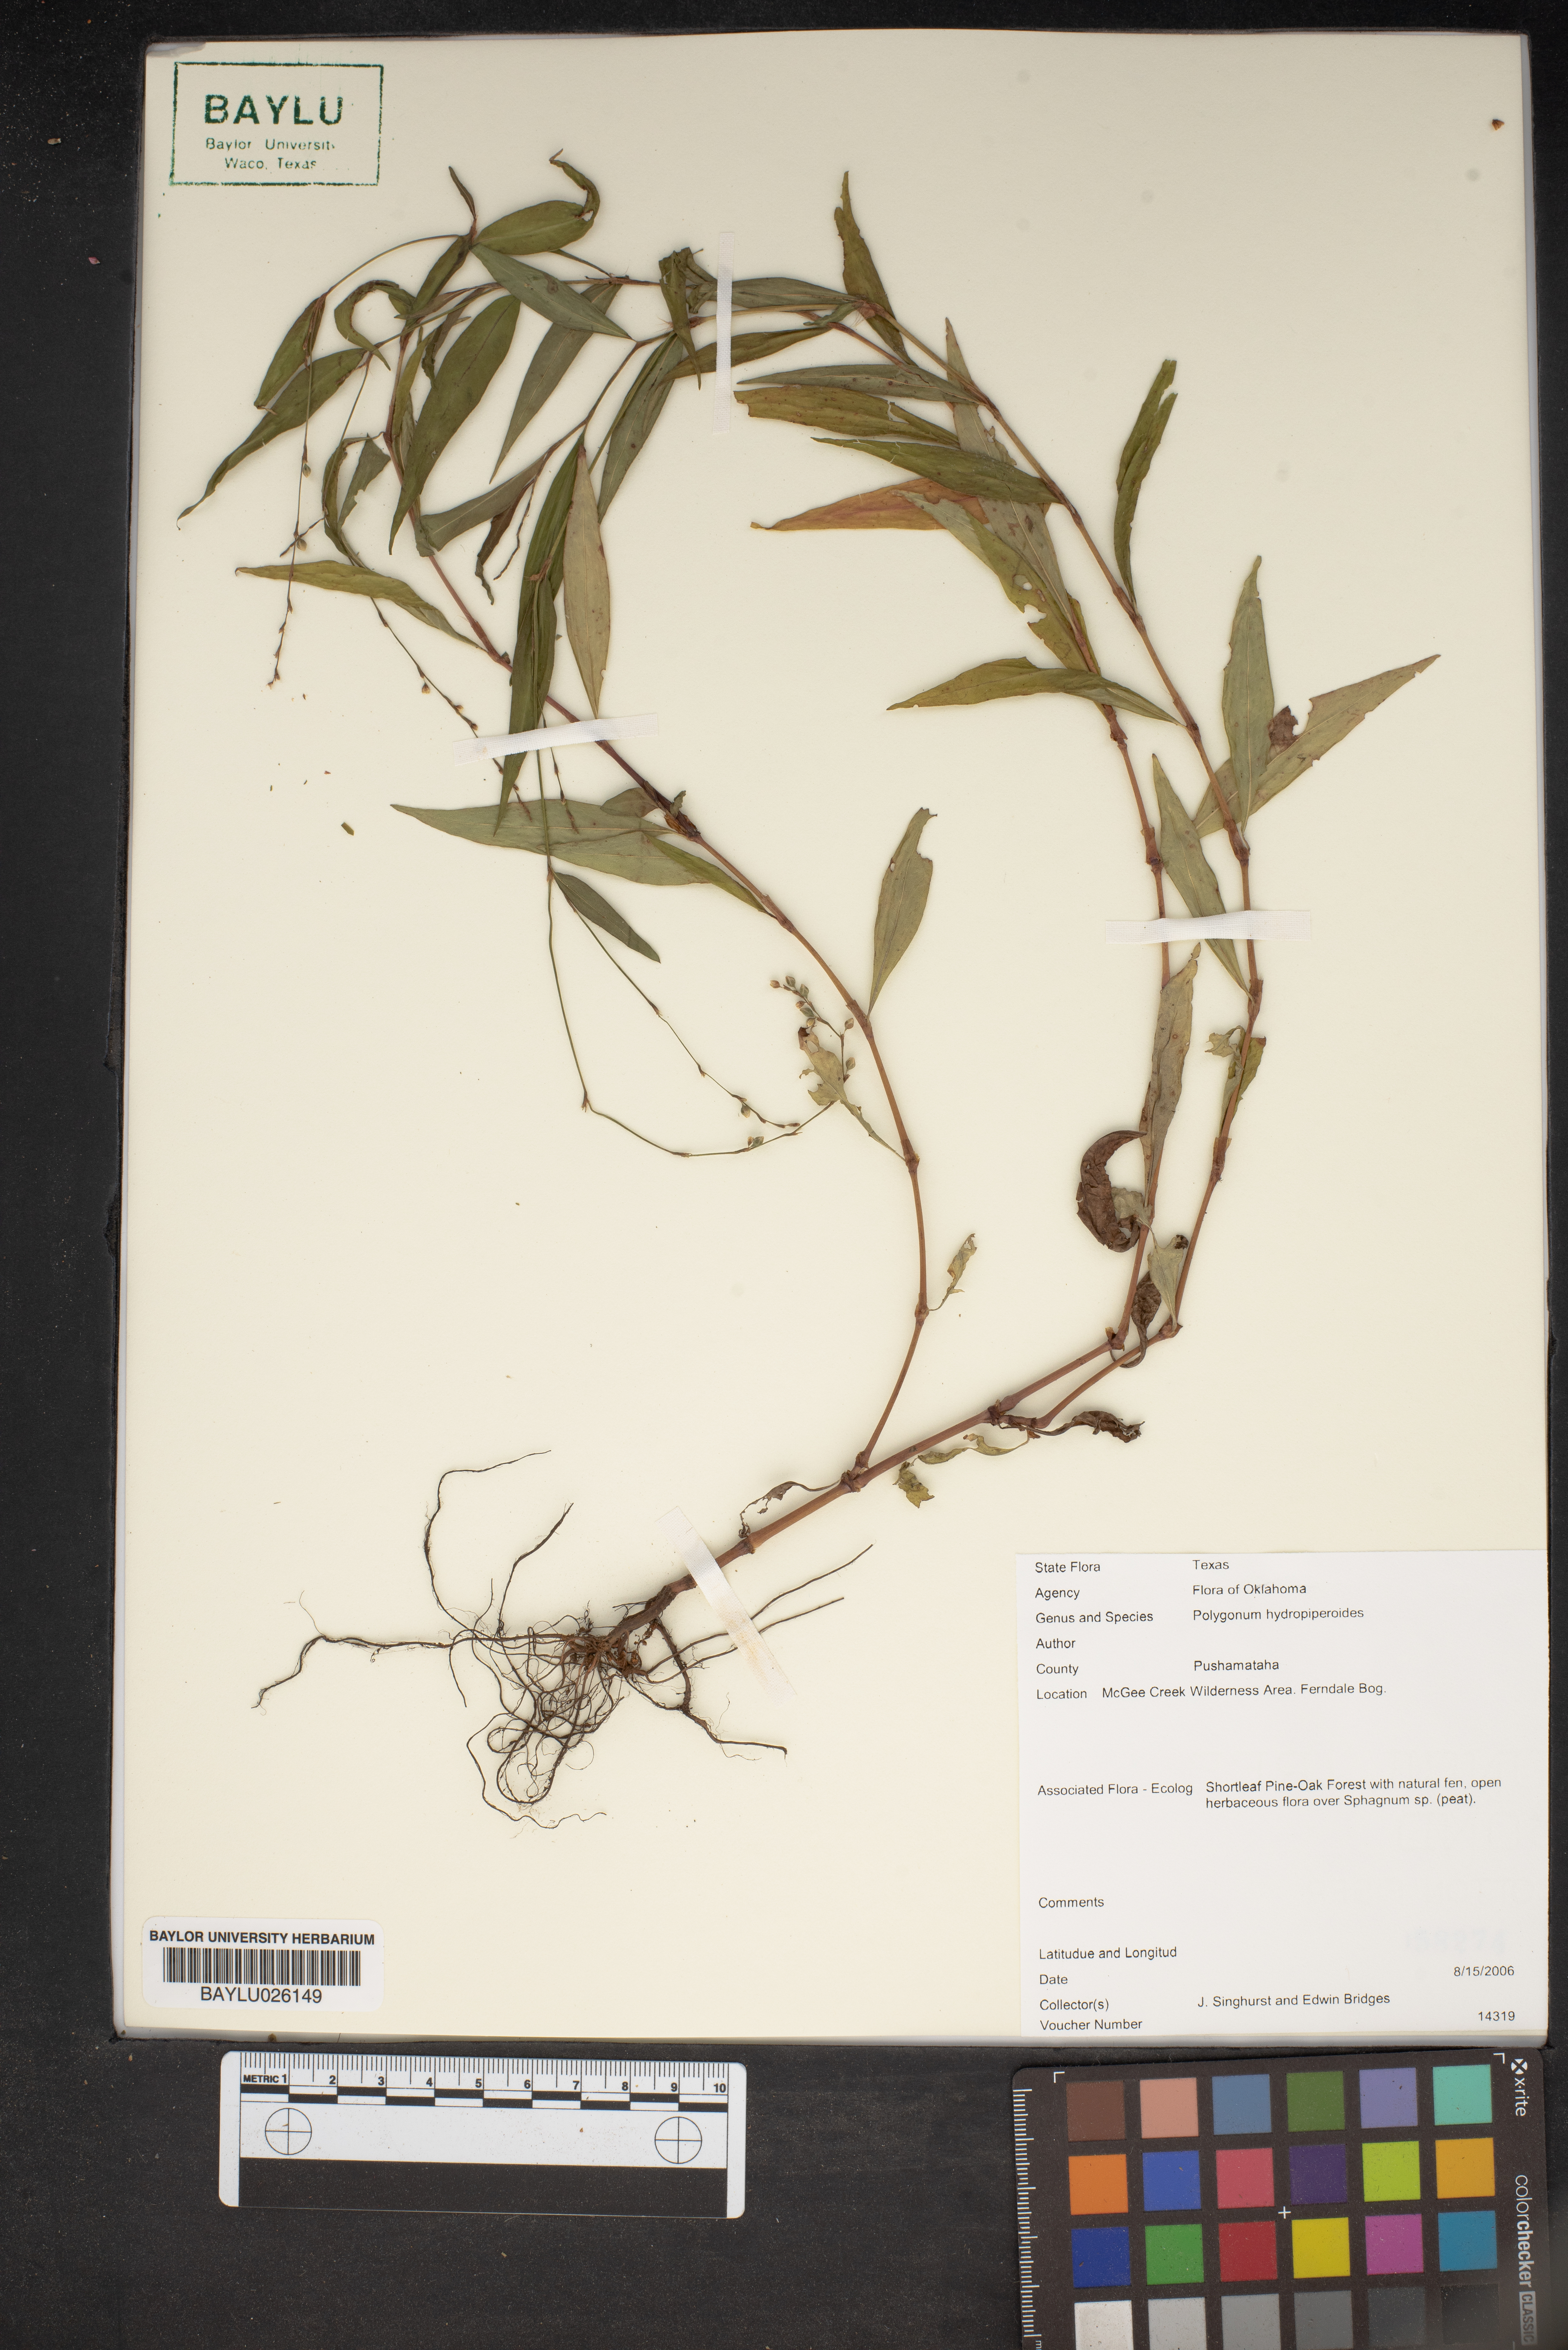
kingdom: Plantae
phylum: Tracheophyta
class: Magnoliopsida
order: Caryophyllales
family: Polygonaceae
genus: Persicaria
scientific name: Persicaria hydropiperoides
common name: Swamp smartweed
